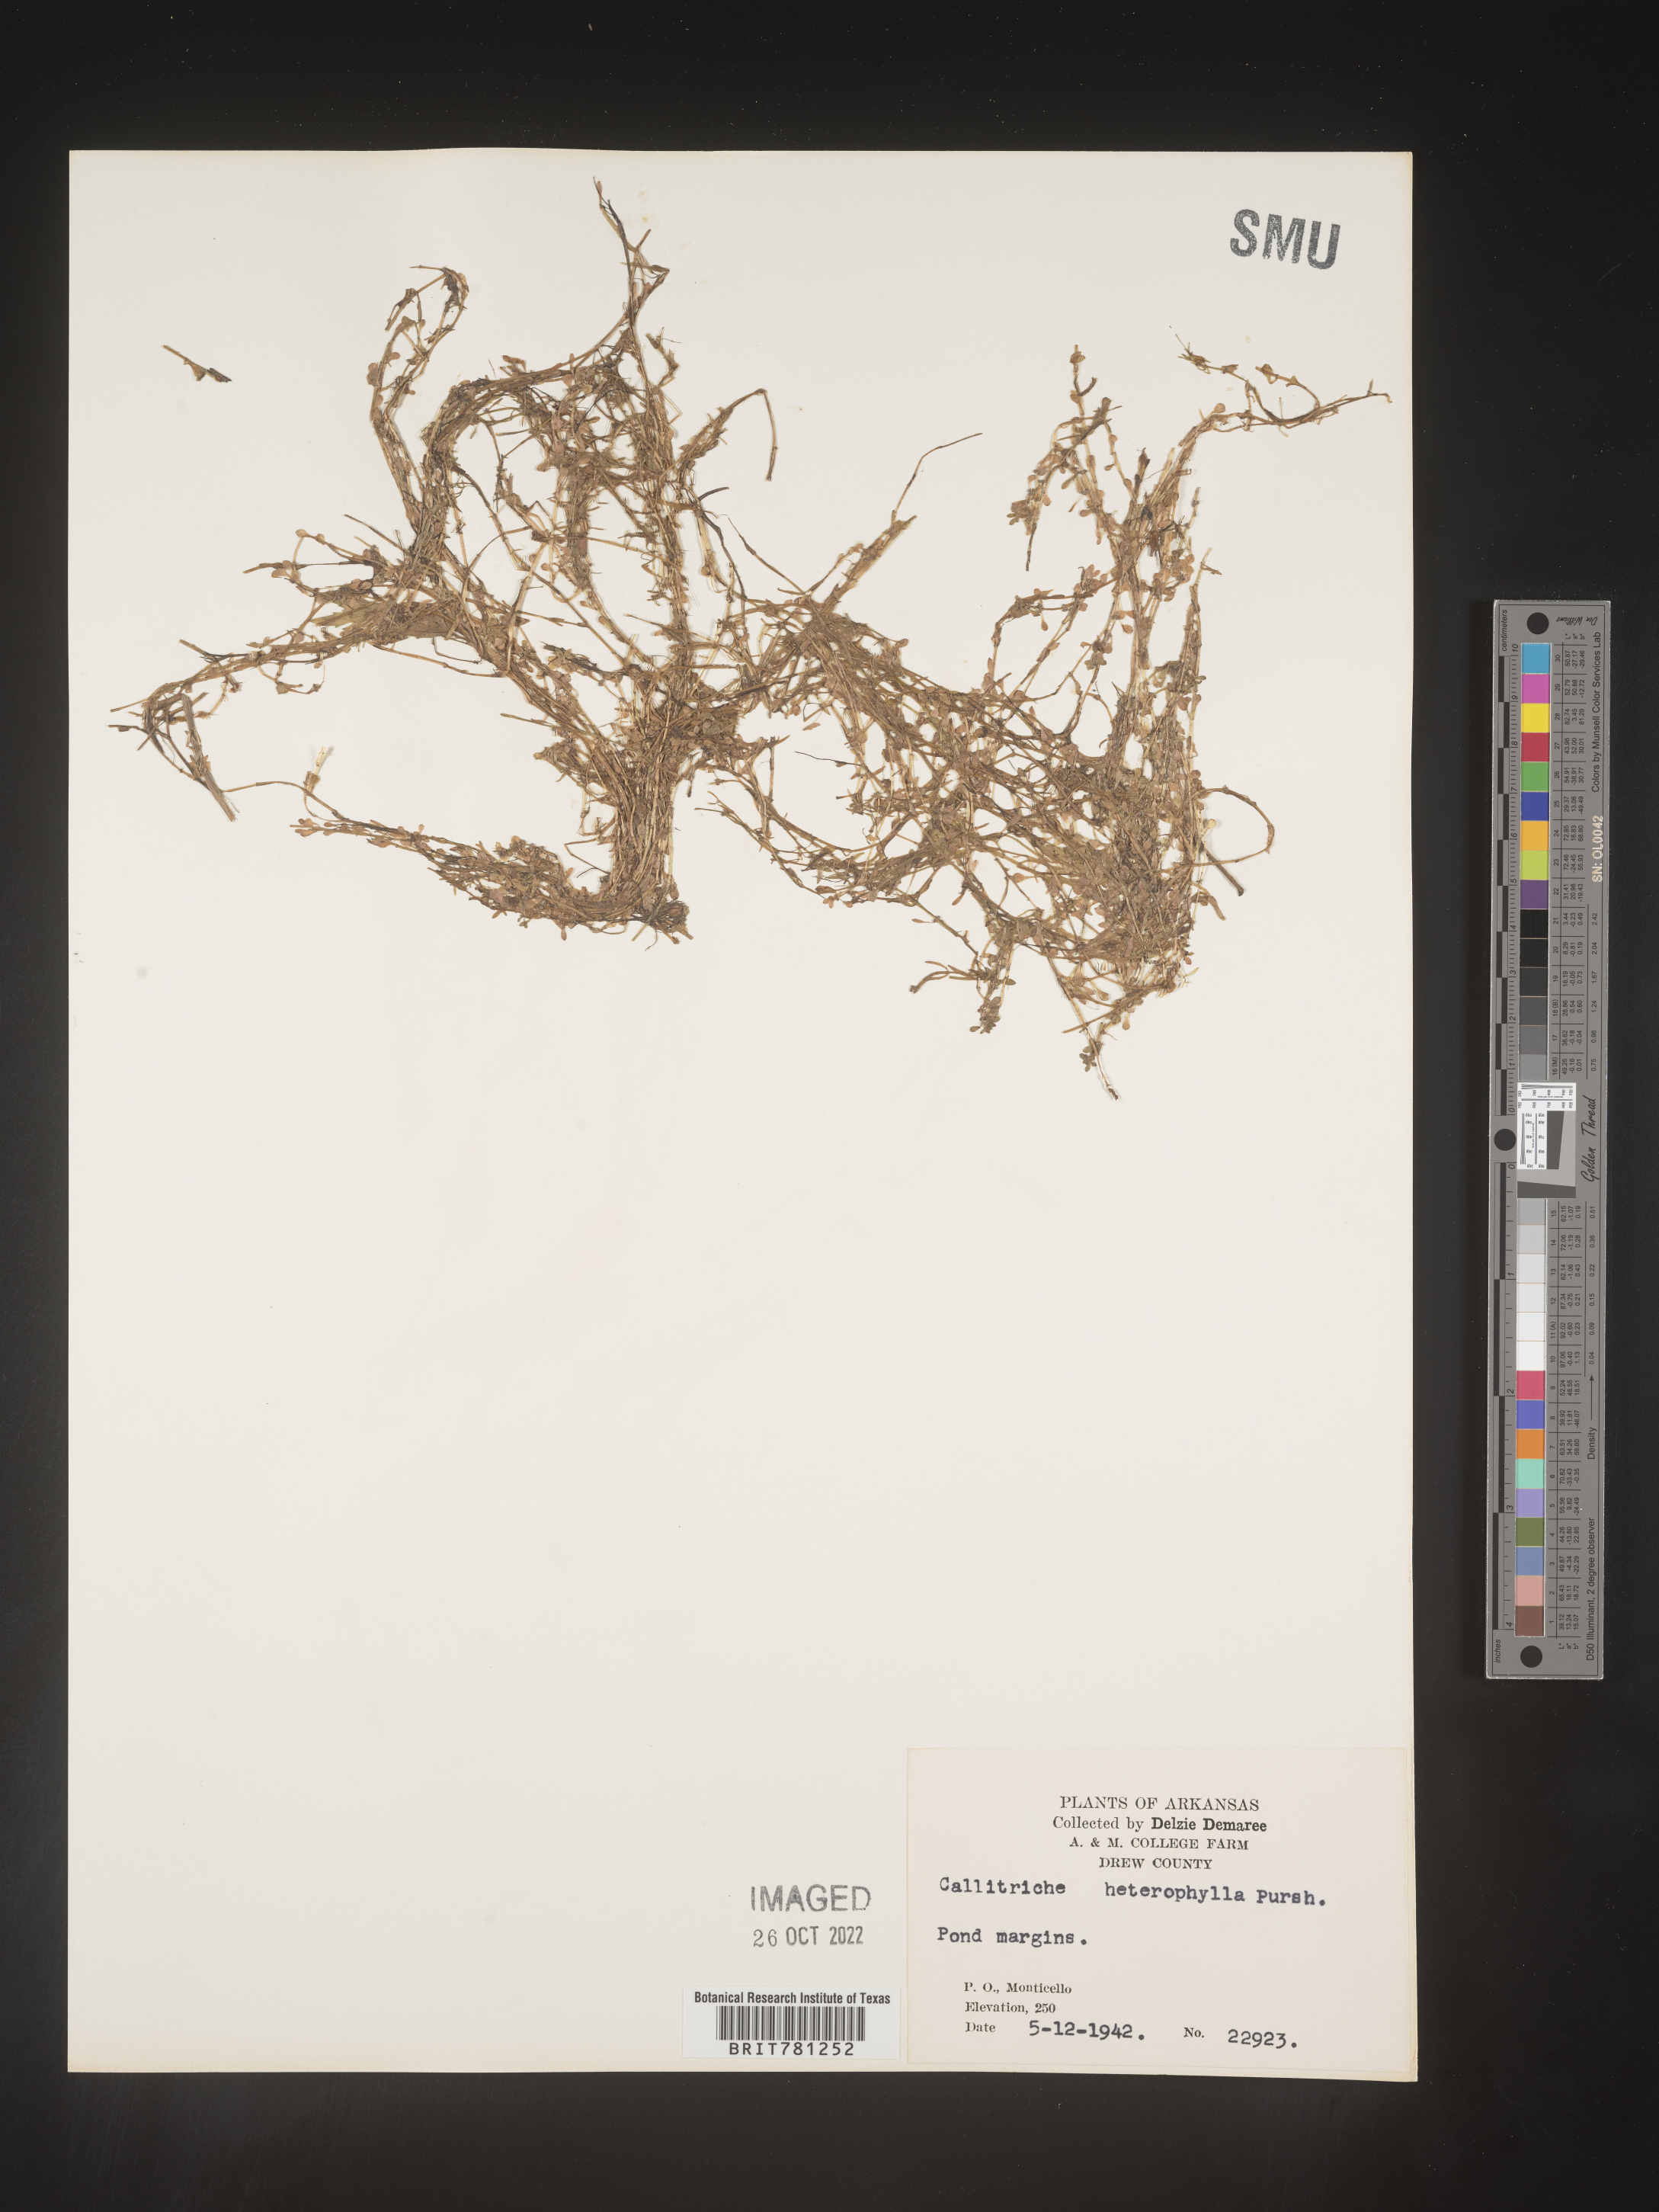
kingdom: Plantae
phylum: Tracheophyta
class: Magnoliopsida
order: Lamiales
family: Plantaginaceae
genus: Callitriche
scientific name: Callitriche heterophylla
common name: Two-headed water-starwort
